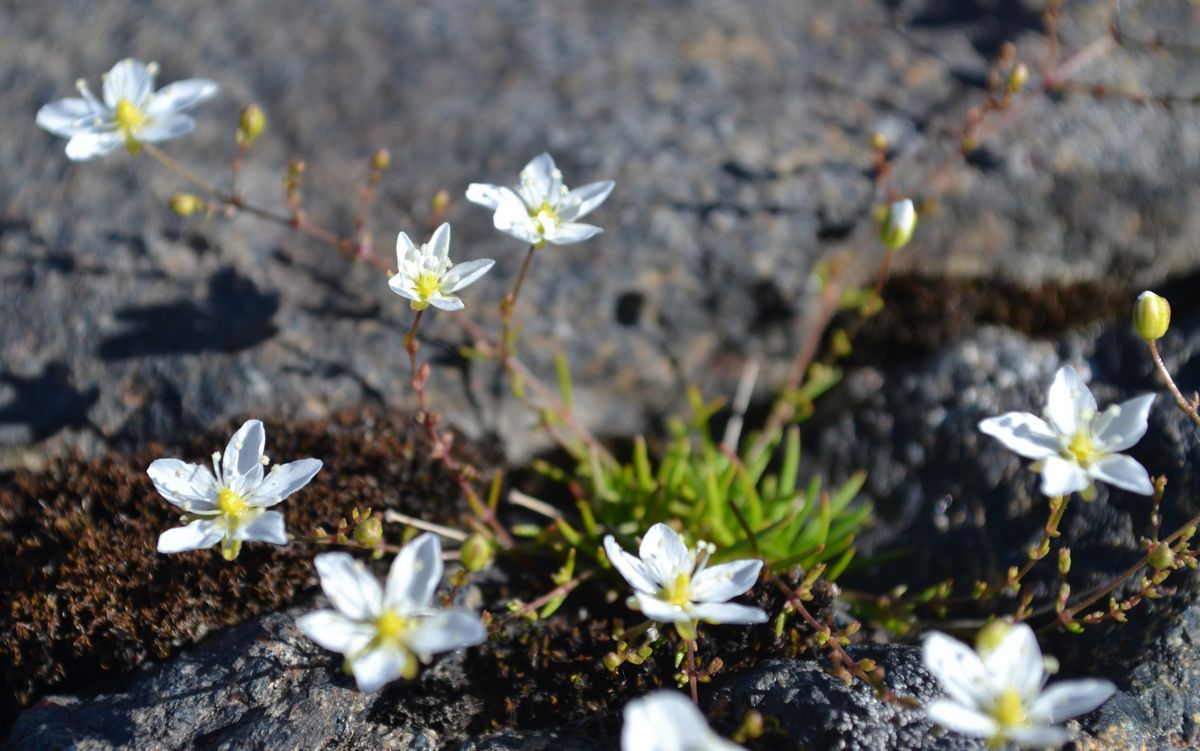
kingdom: Plantae
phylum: Tracheophyta
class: Magnoliopsida
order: Caryophyllales
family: Caryophyllaceae
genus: Sagina
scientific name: Sagina nodosa
